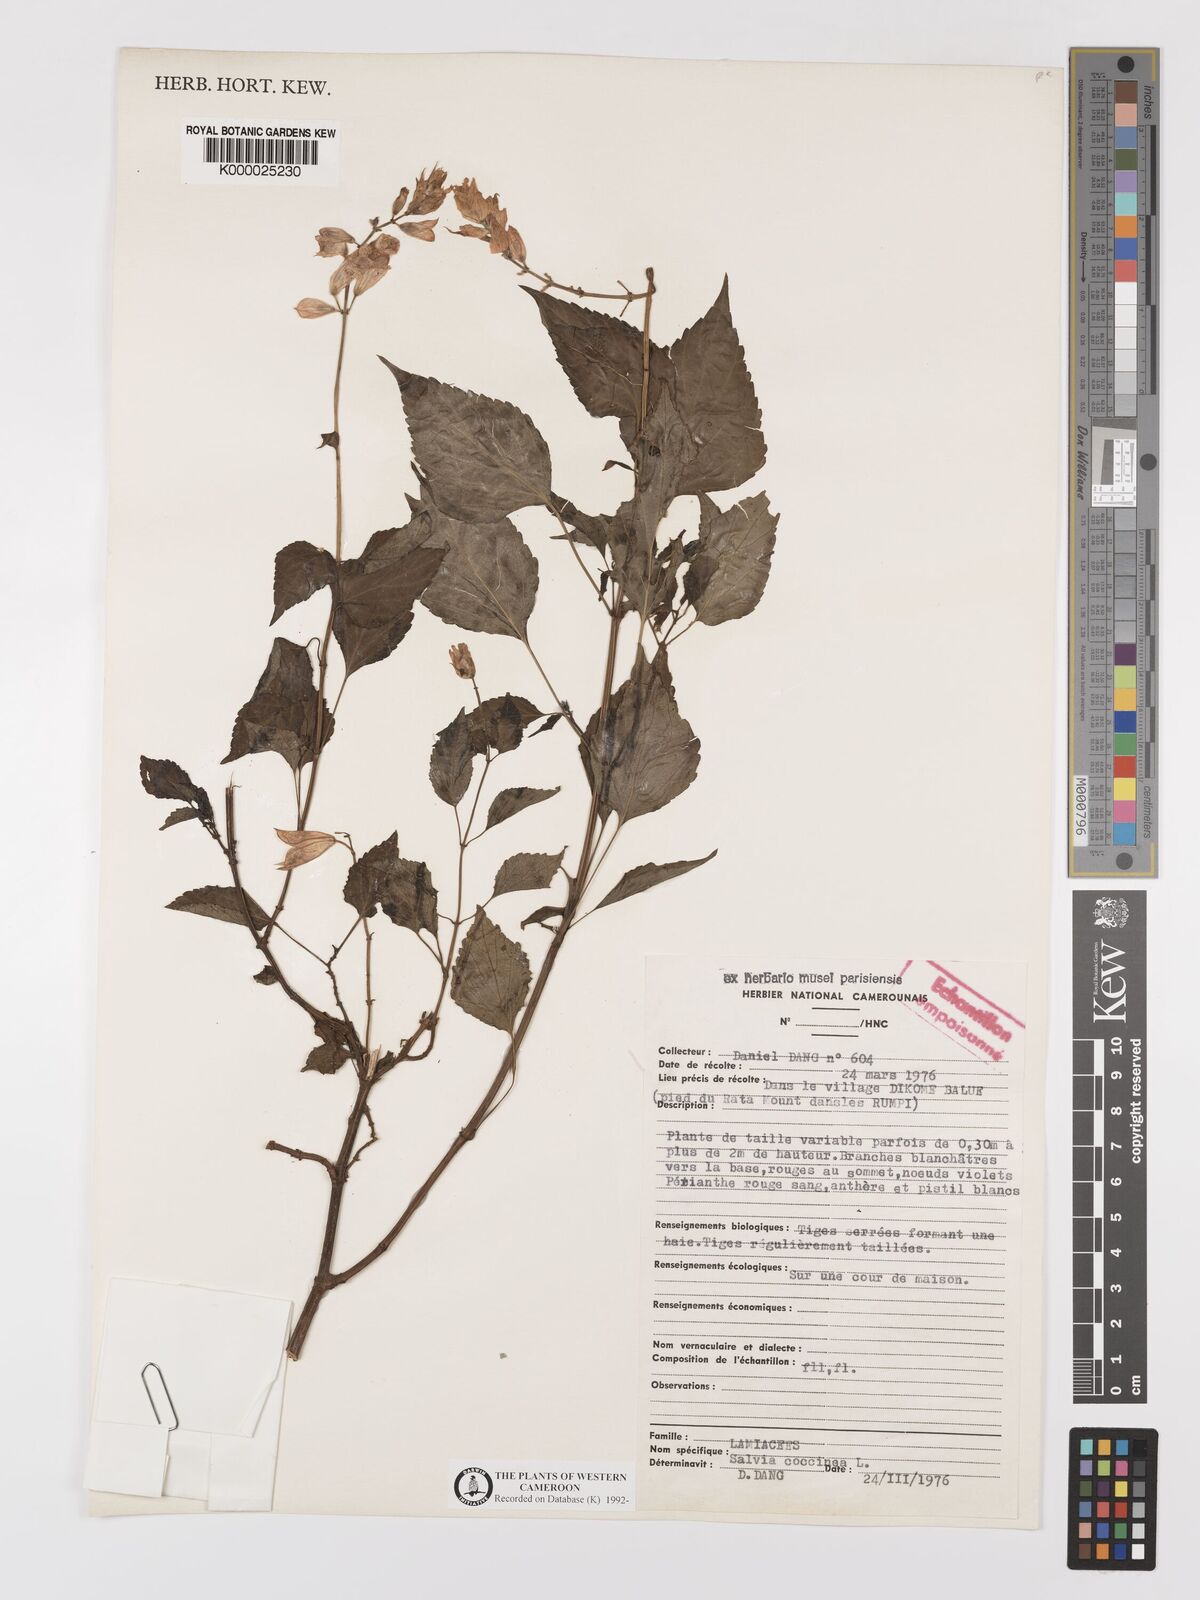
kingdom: Plantae
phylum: Tracheophyta
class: Magnoliopsida
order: Lamiales
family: Lamiaceae
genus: Salvia
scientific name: Salvia coccinea
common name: Blood sage
